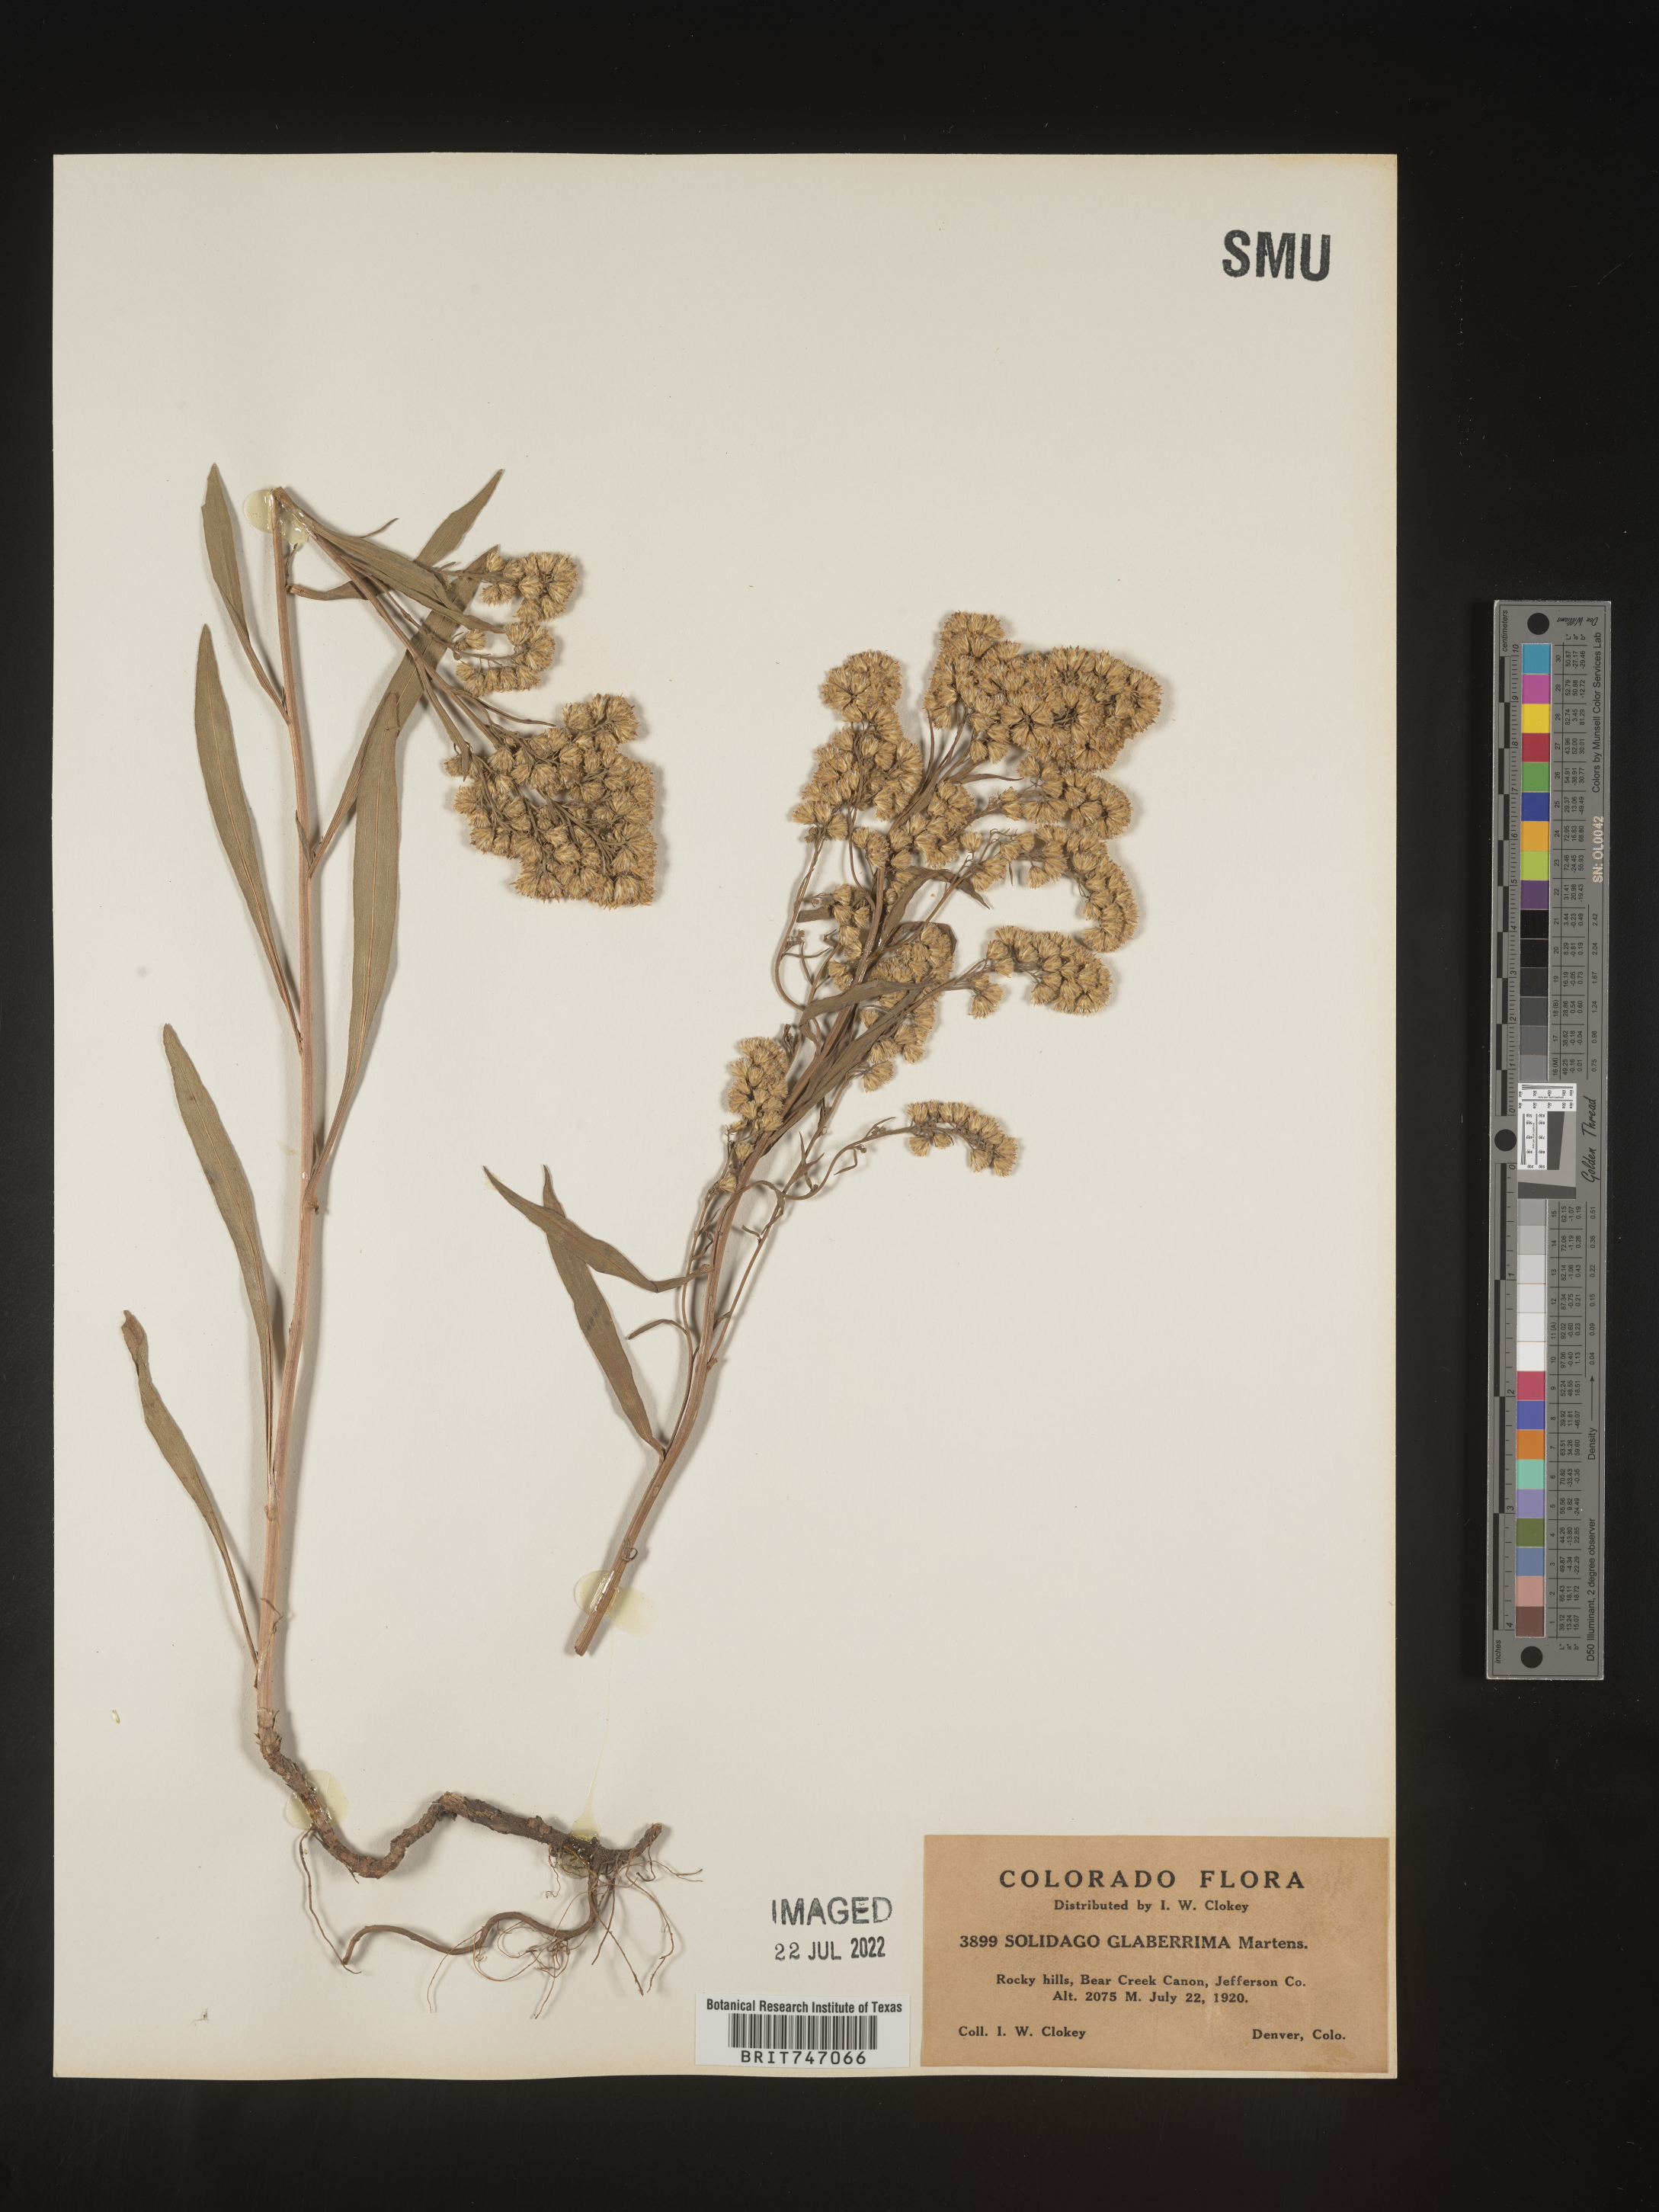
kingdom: Plantae
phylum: Tracheophyta
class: Magnoliopsida
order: Asterales
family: Asteraceae
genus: Solidago
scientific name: Solidago missouriensis
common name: Prairie goldenrod
